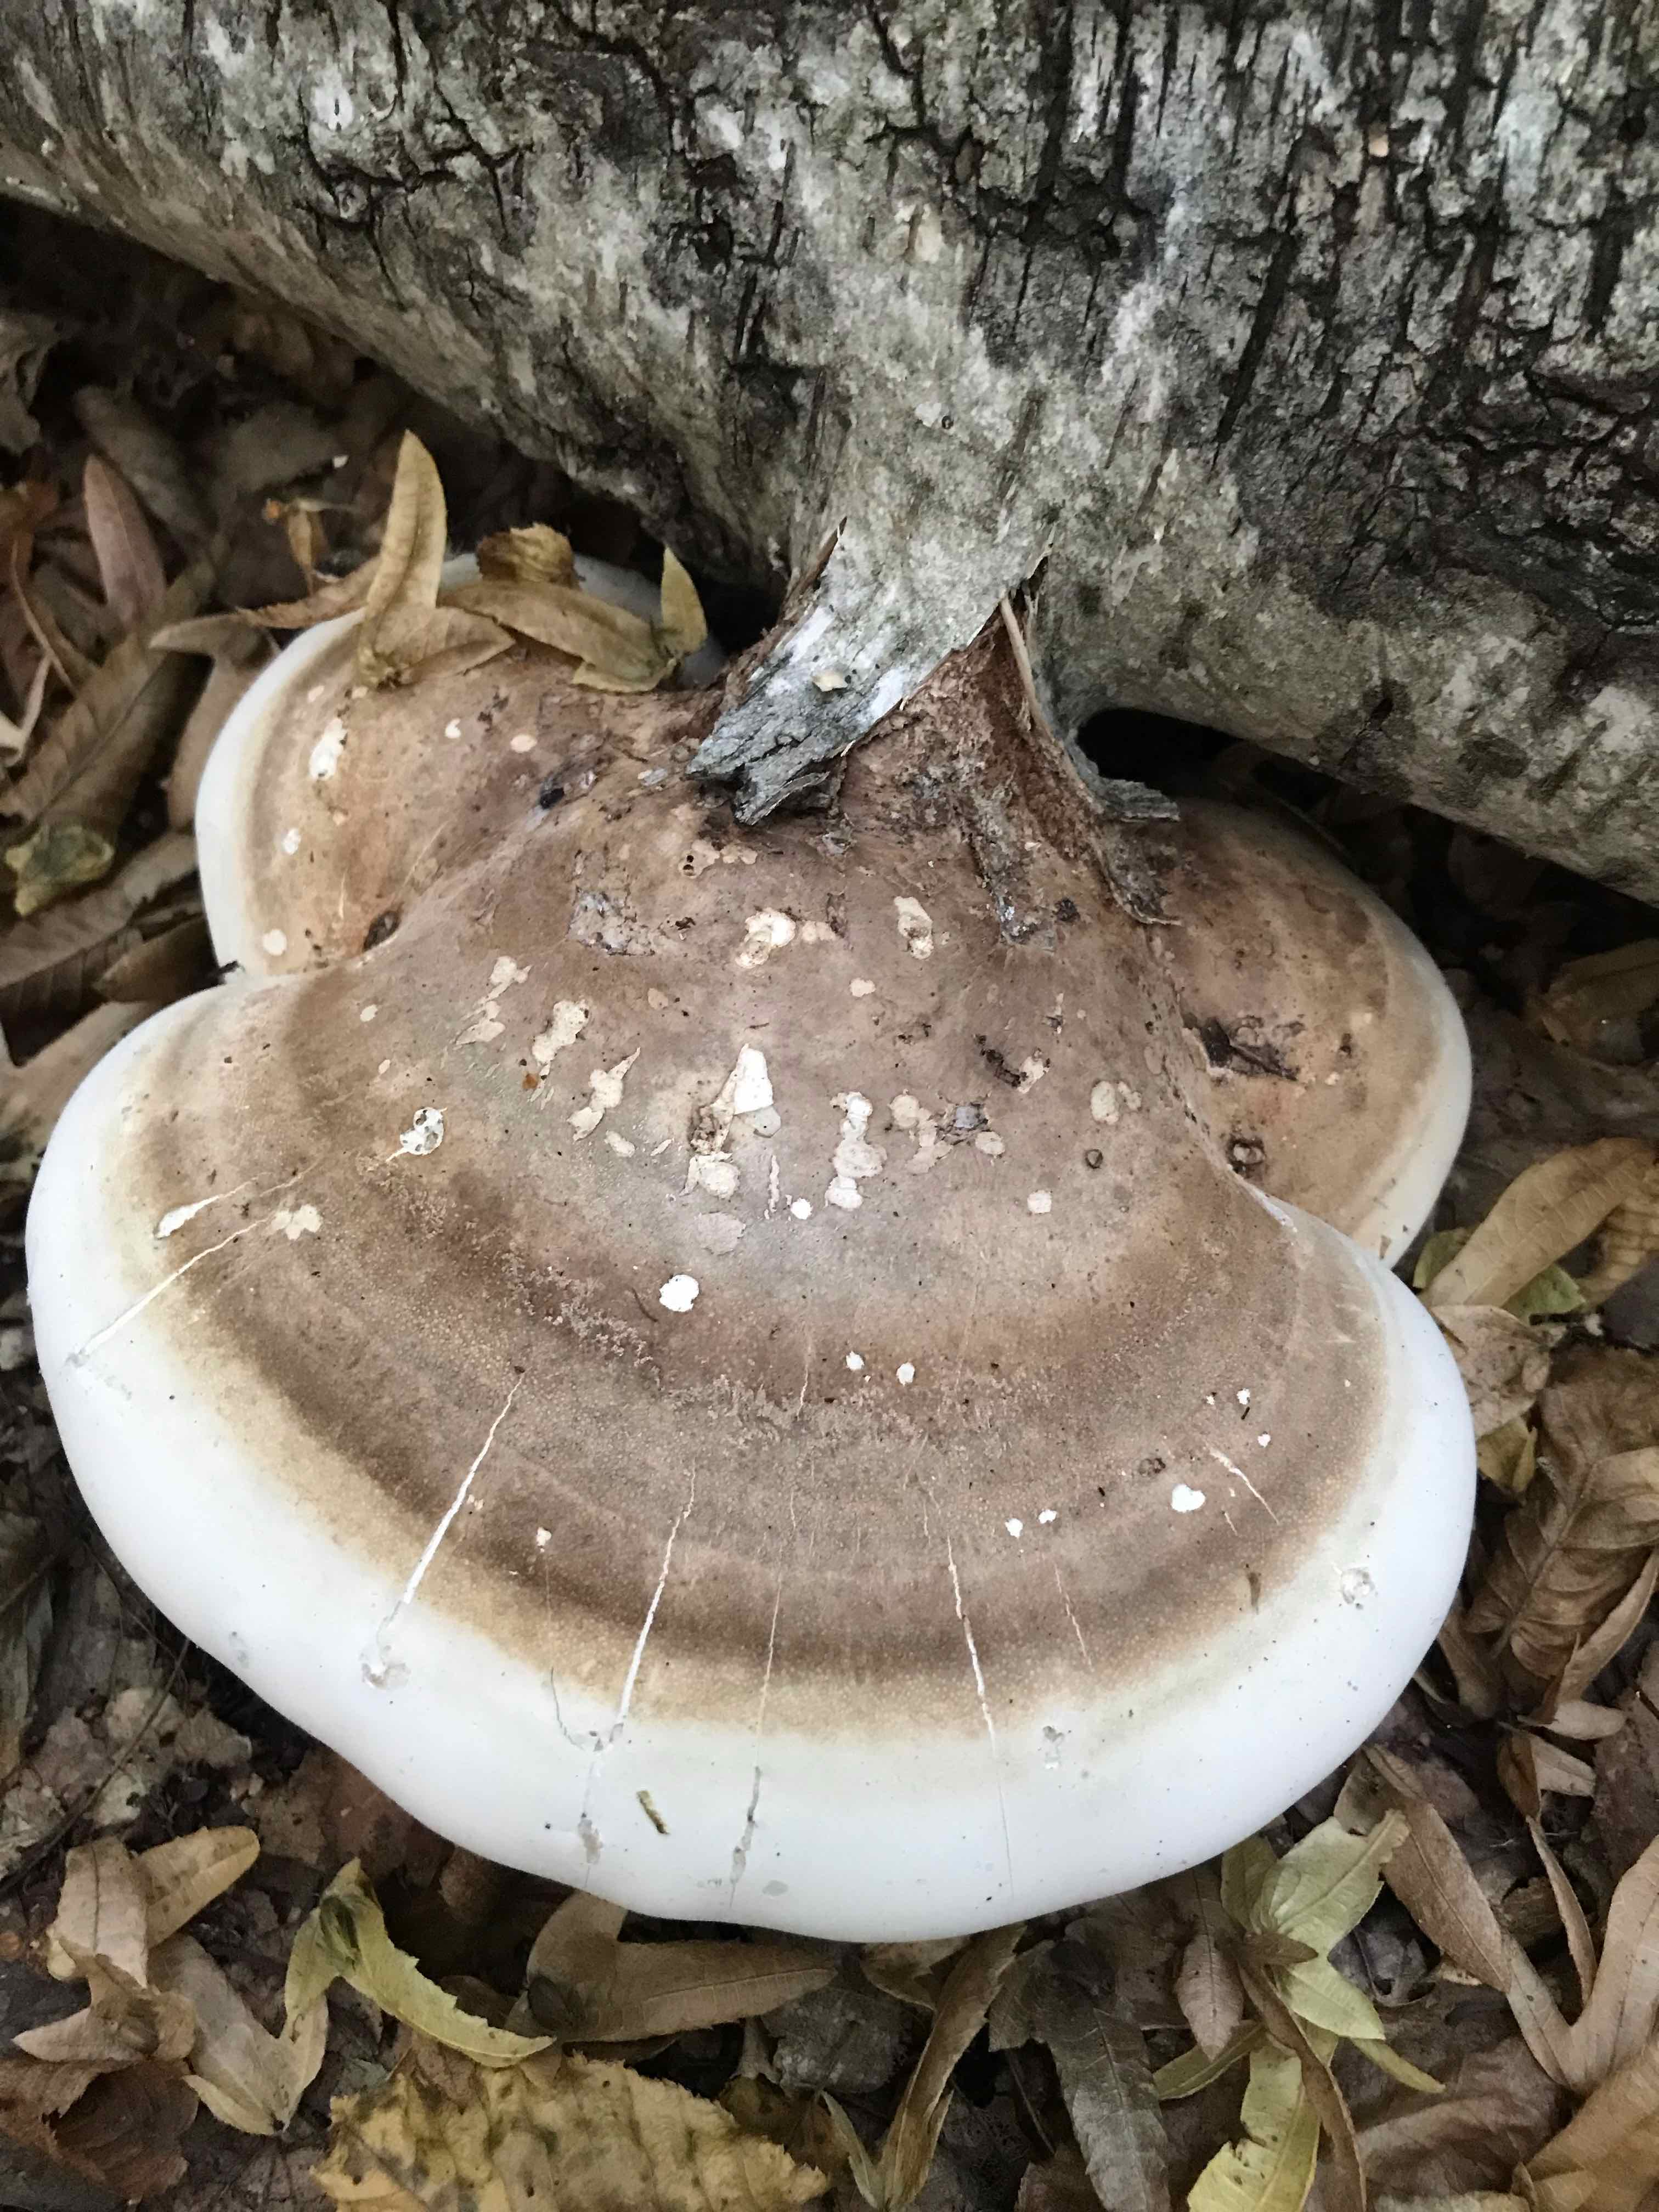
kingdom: Fungi
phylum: Basidiomycota
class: Agaricomycetes
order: Polyporales
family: Fomitopsidaceae
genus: Fomitopsis
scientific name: Fomitopsis betulina
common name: birkeporesvamp
